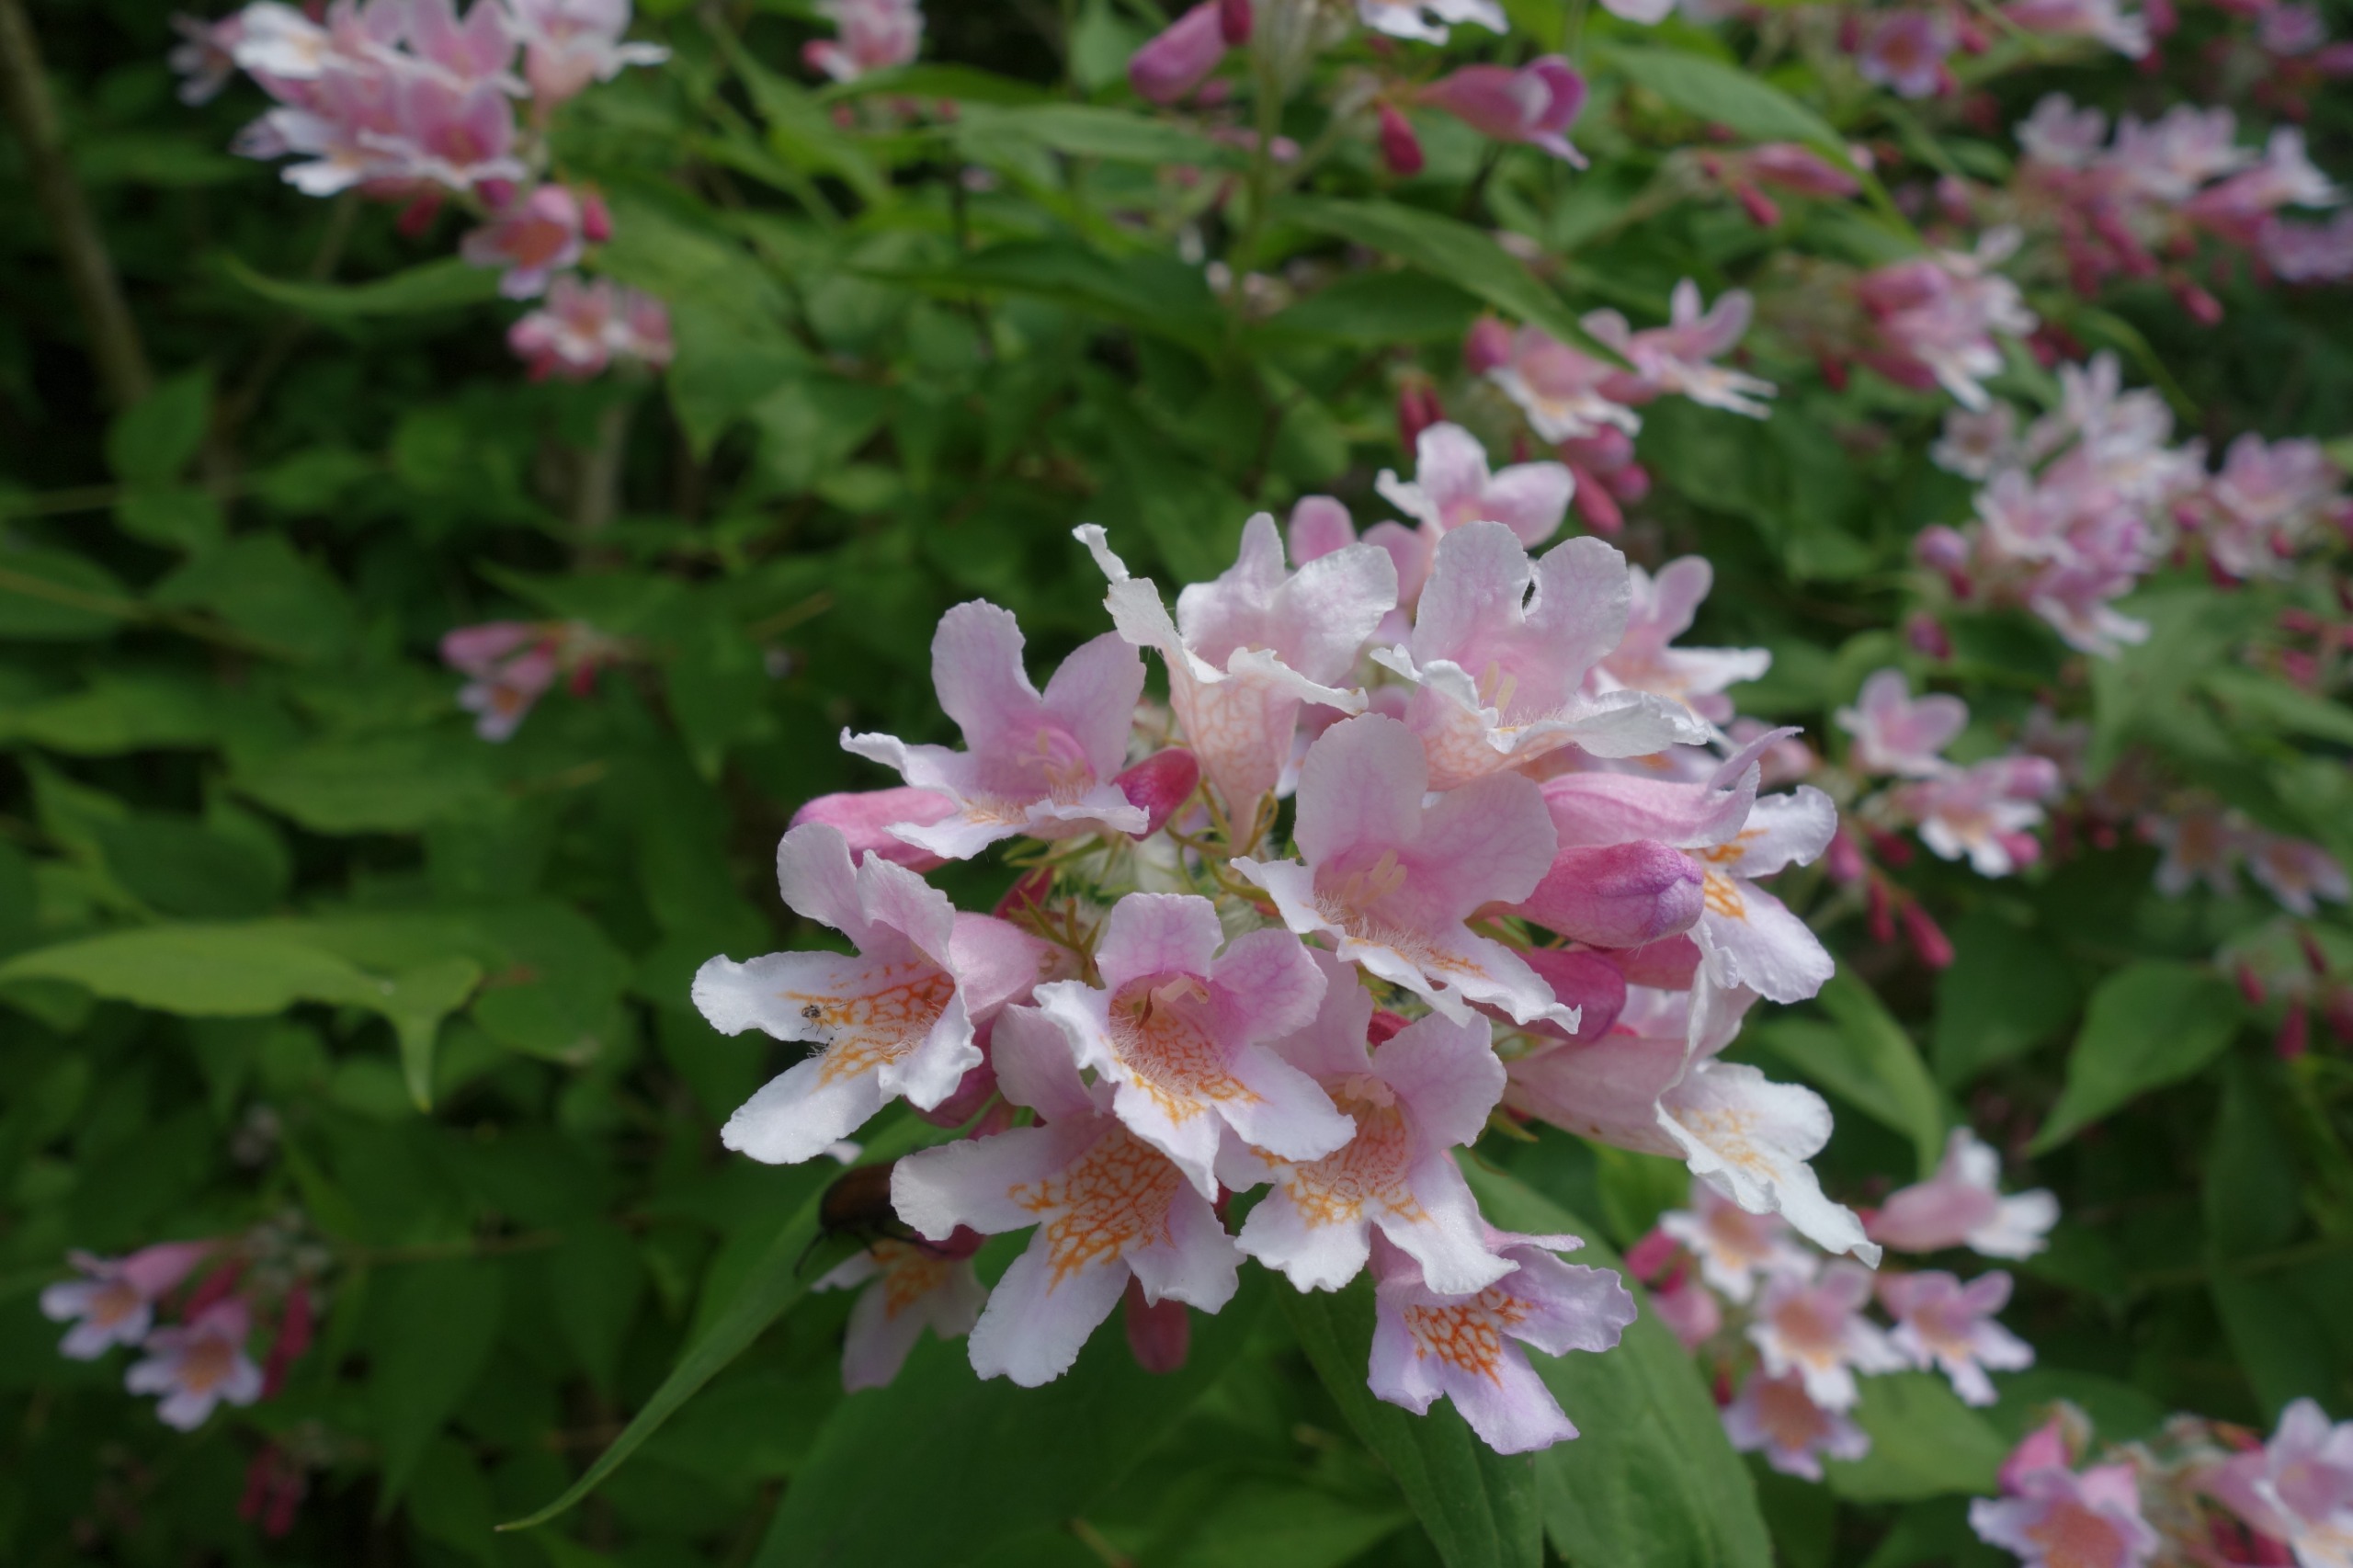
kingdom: Plantae
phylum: Tracheophyta
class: Magnoliopsida
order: Dipsacales
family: Caprifoliaceae
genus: Kolkwitzia
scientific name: Kolkwitzia amabilis
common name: Dronningebusk
